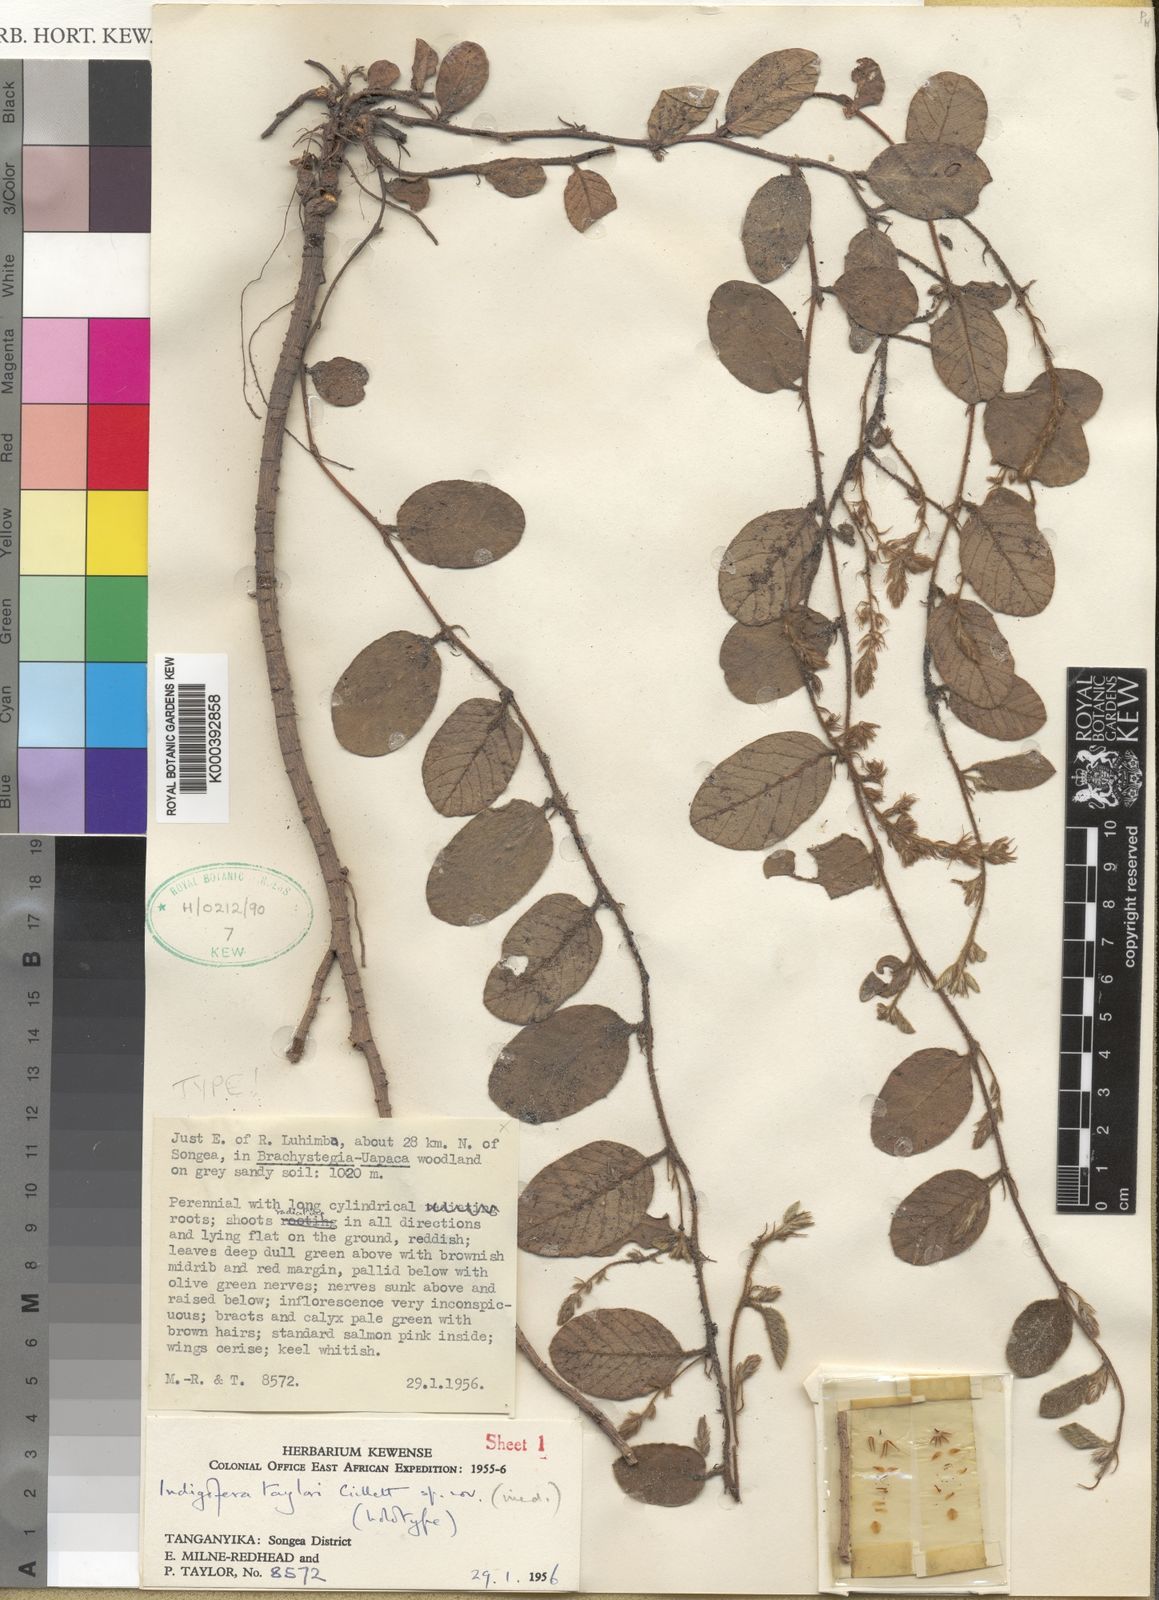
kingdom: Plantae
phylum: Tracheophyta
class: Magnoliopsida
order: Fabales
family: Fabaceae
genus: Indigofera
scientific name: Indigofera taylorii
